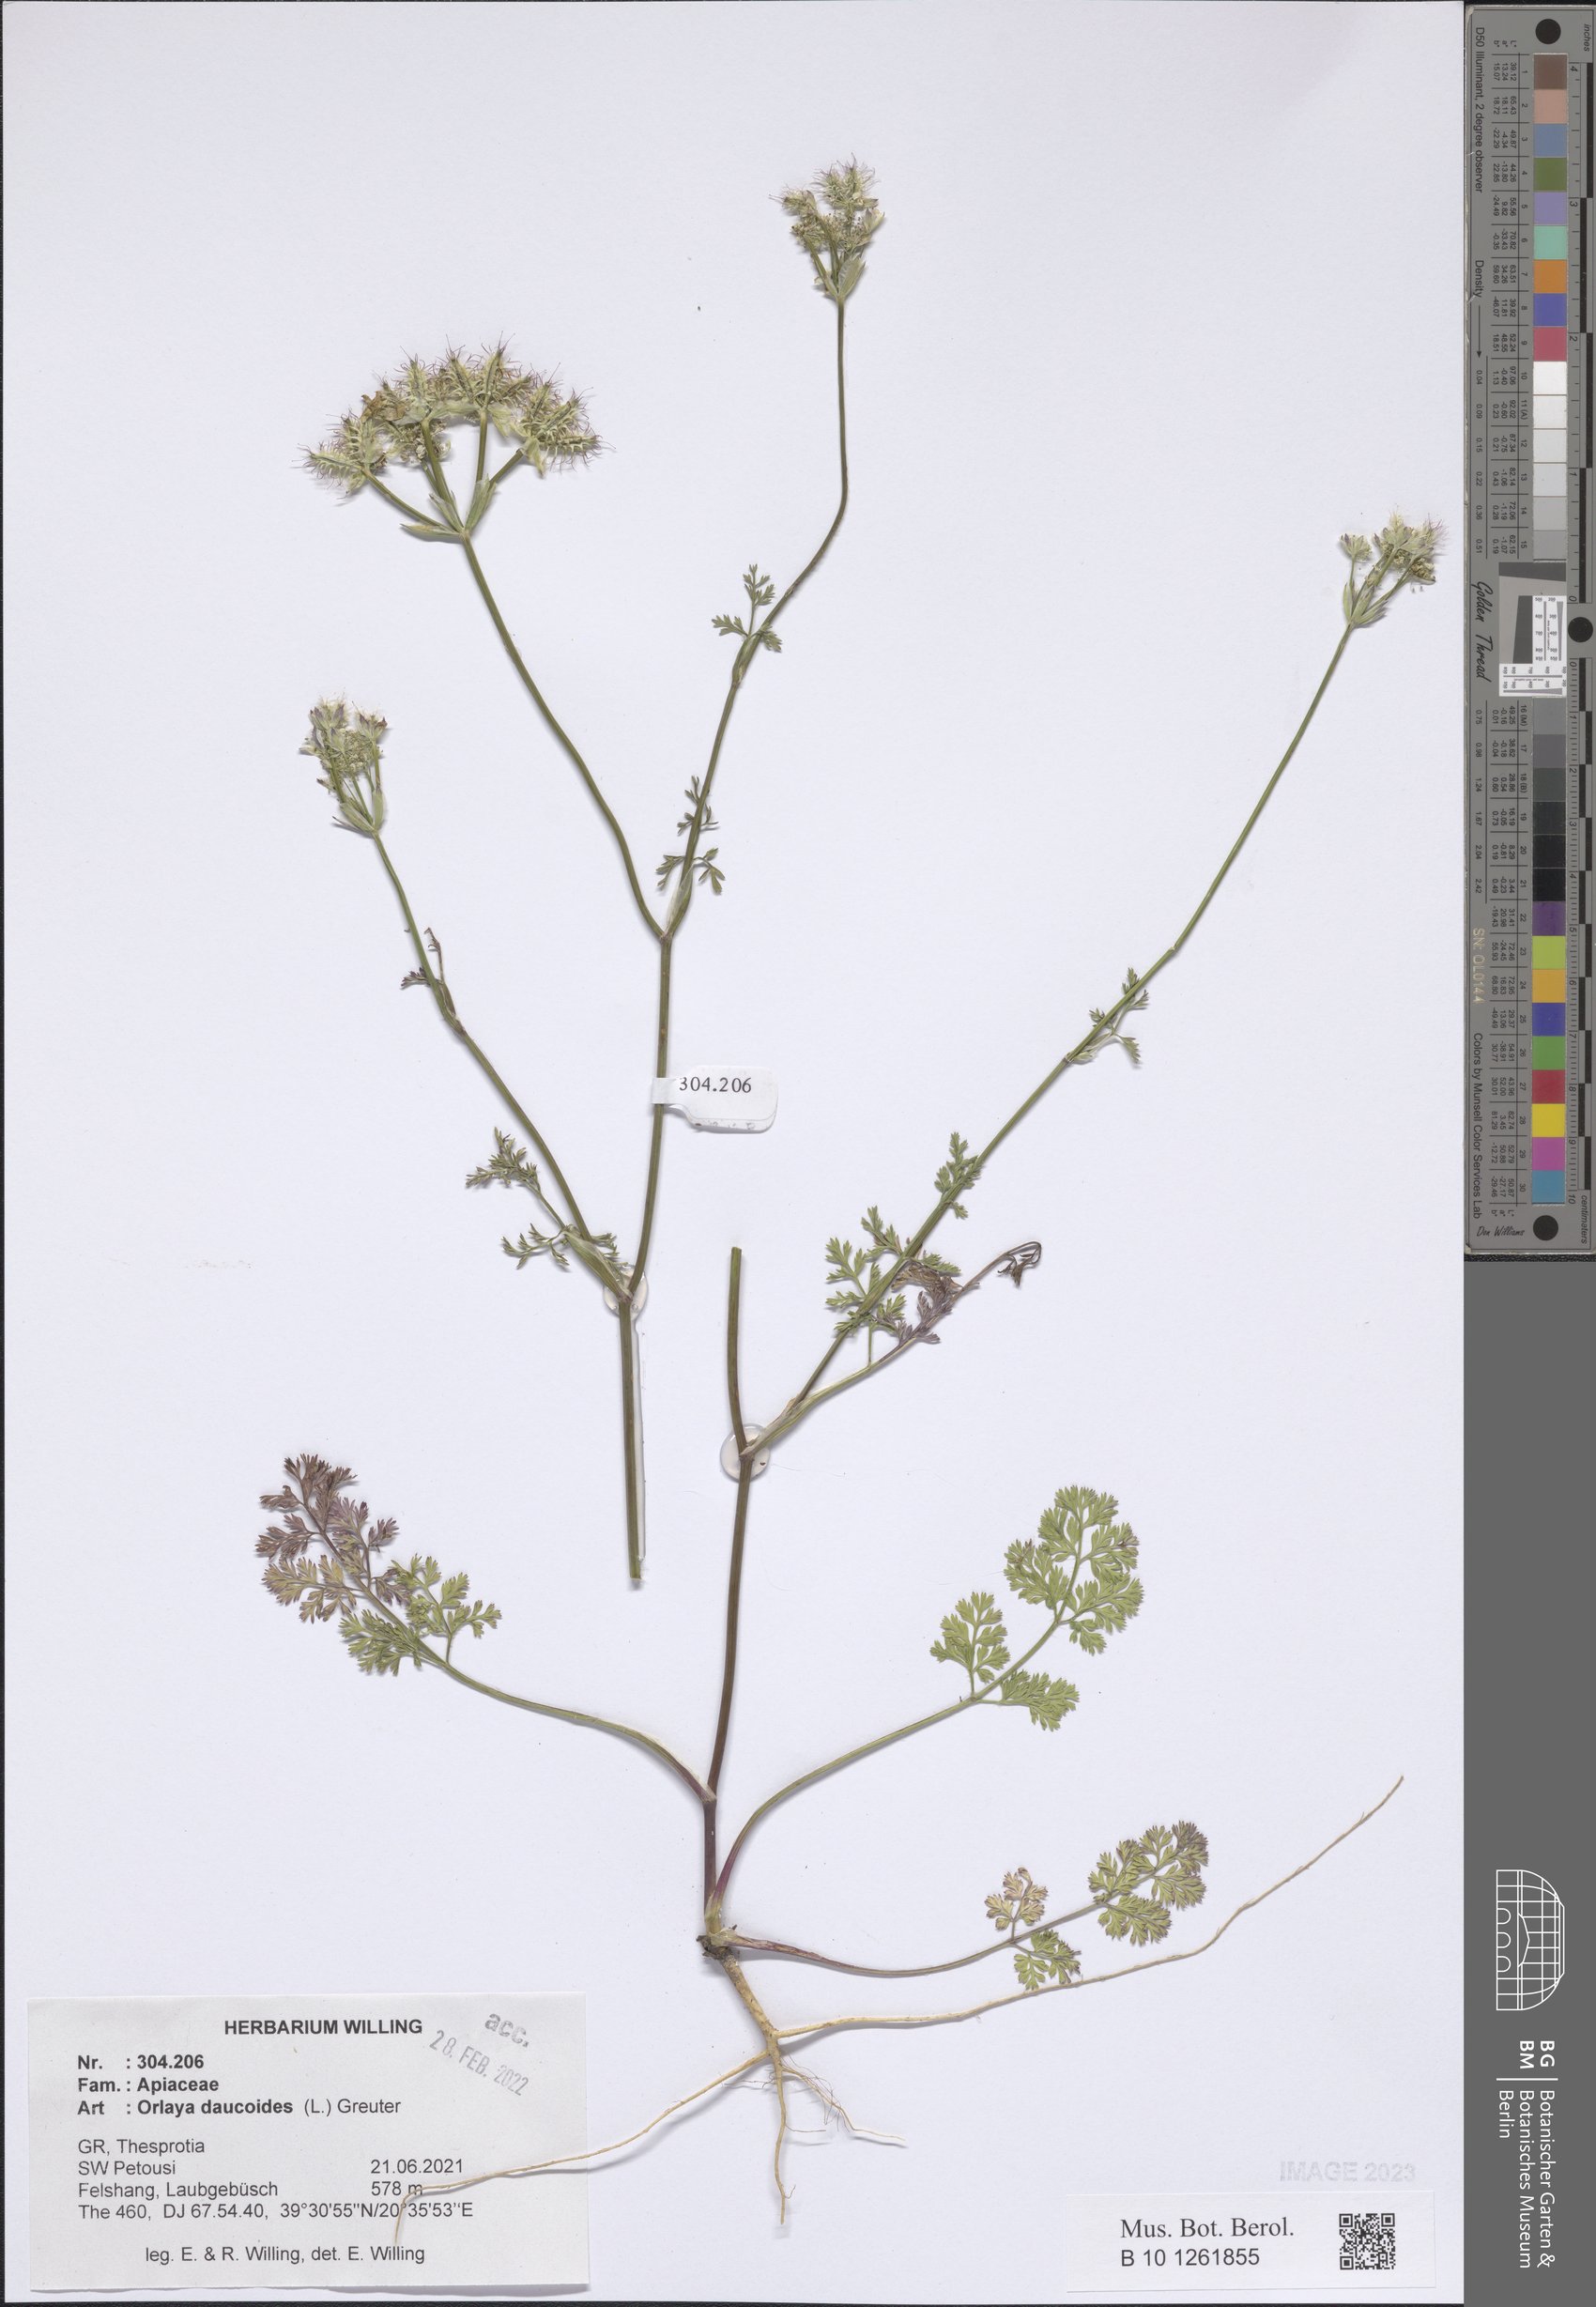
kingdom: Plantae
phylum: Tracheophyta
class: Magnoliopsida
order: Apiales
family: Apiaceae
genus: Orlaya
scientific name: Orlaya daucoides
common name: Flat-fruit orlaya
